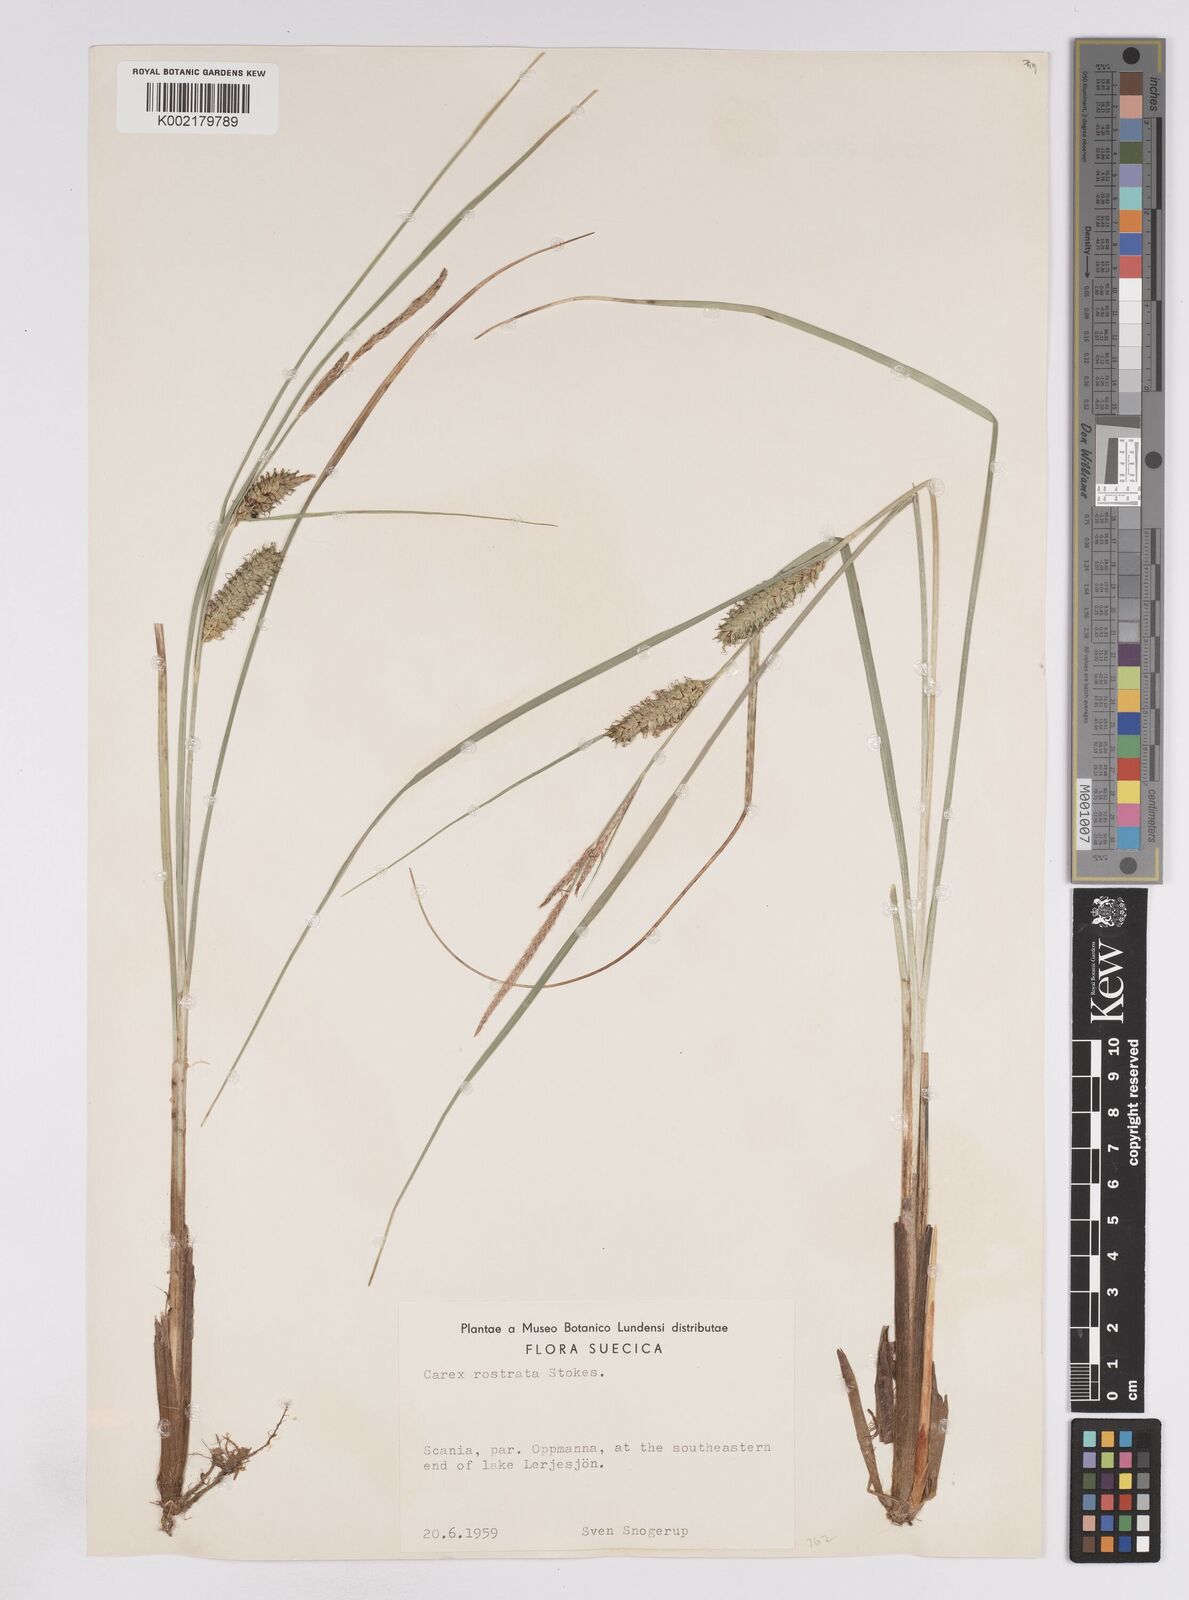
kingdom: Plantae
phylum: Tracheophyta
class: Liliopsida
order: Poales
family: Cyperaceae
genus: Carex
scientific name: Carex rostrata
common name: Bottle sedge
